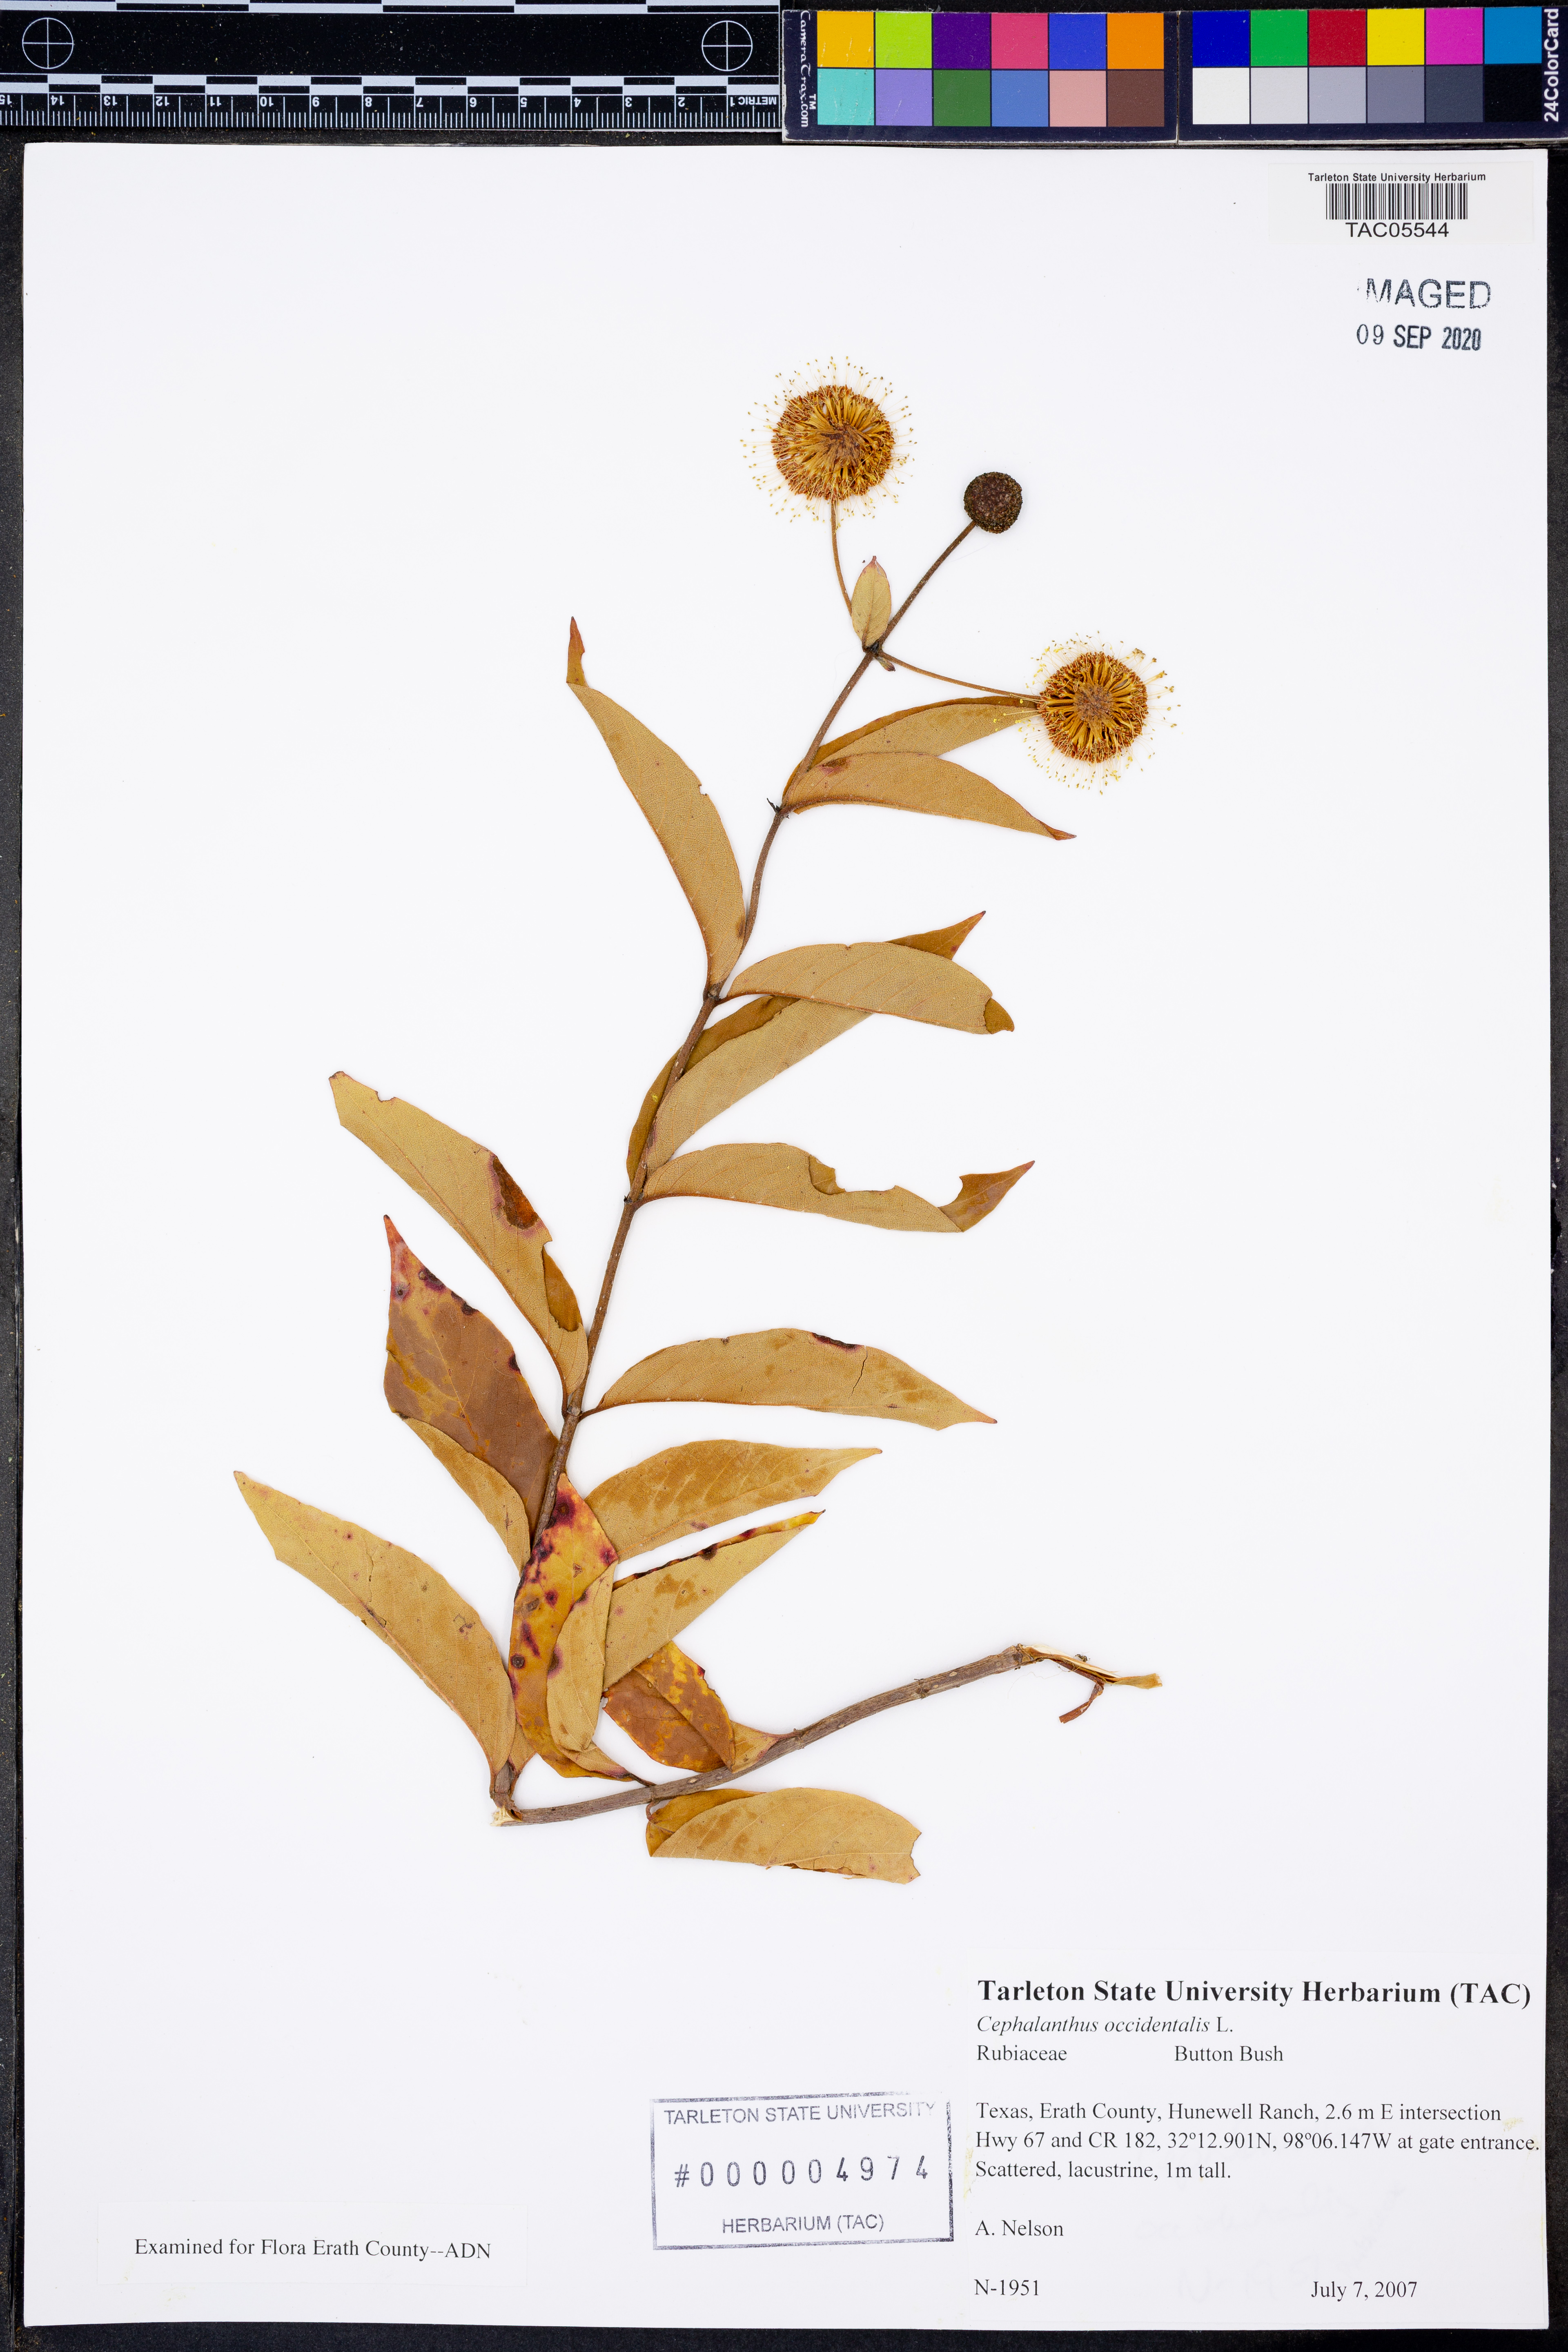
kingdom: Plantae
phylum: Tracheophyta
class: Magnoliopsida
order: Gentianales
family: Rubiaceae
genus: Cephalanthus
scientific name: Cephalanthus occidentalis
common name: Button-willow
